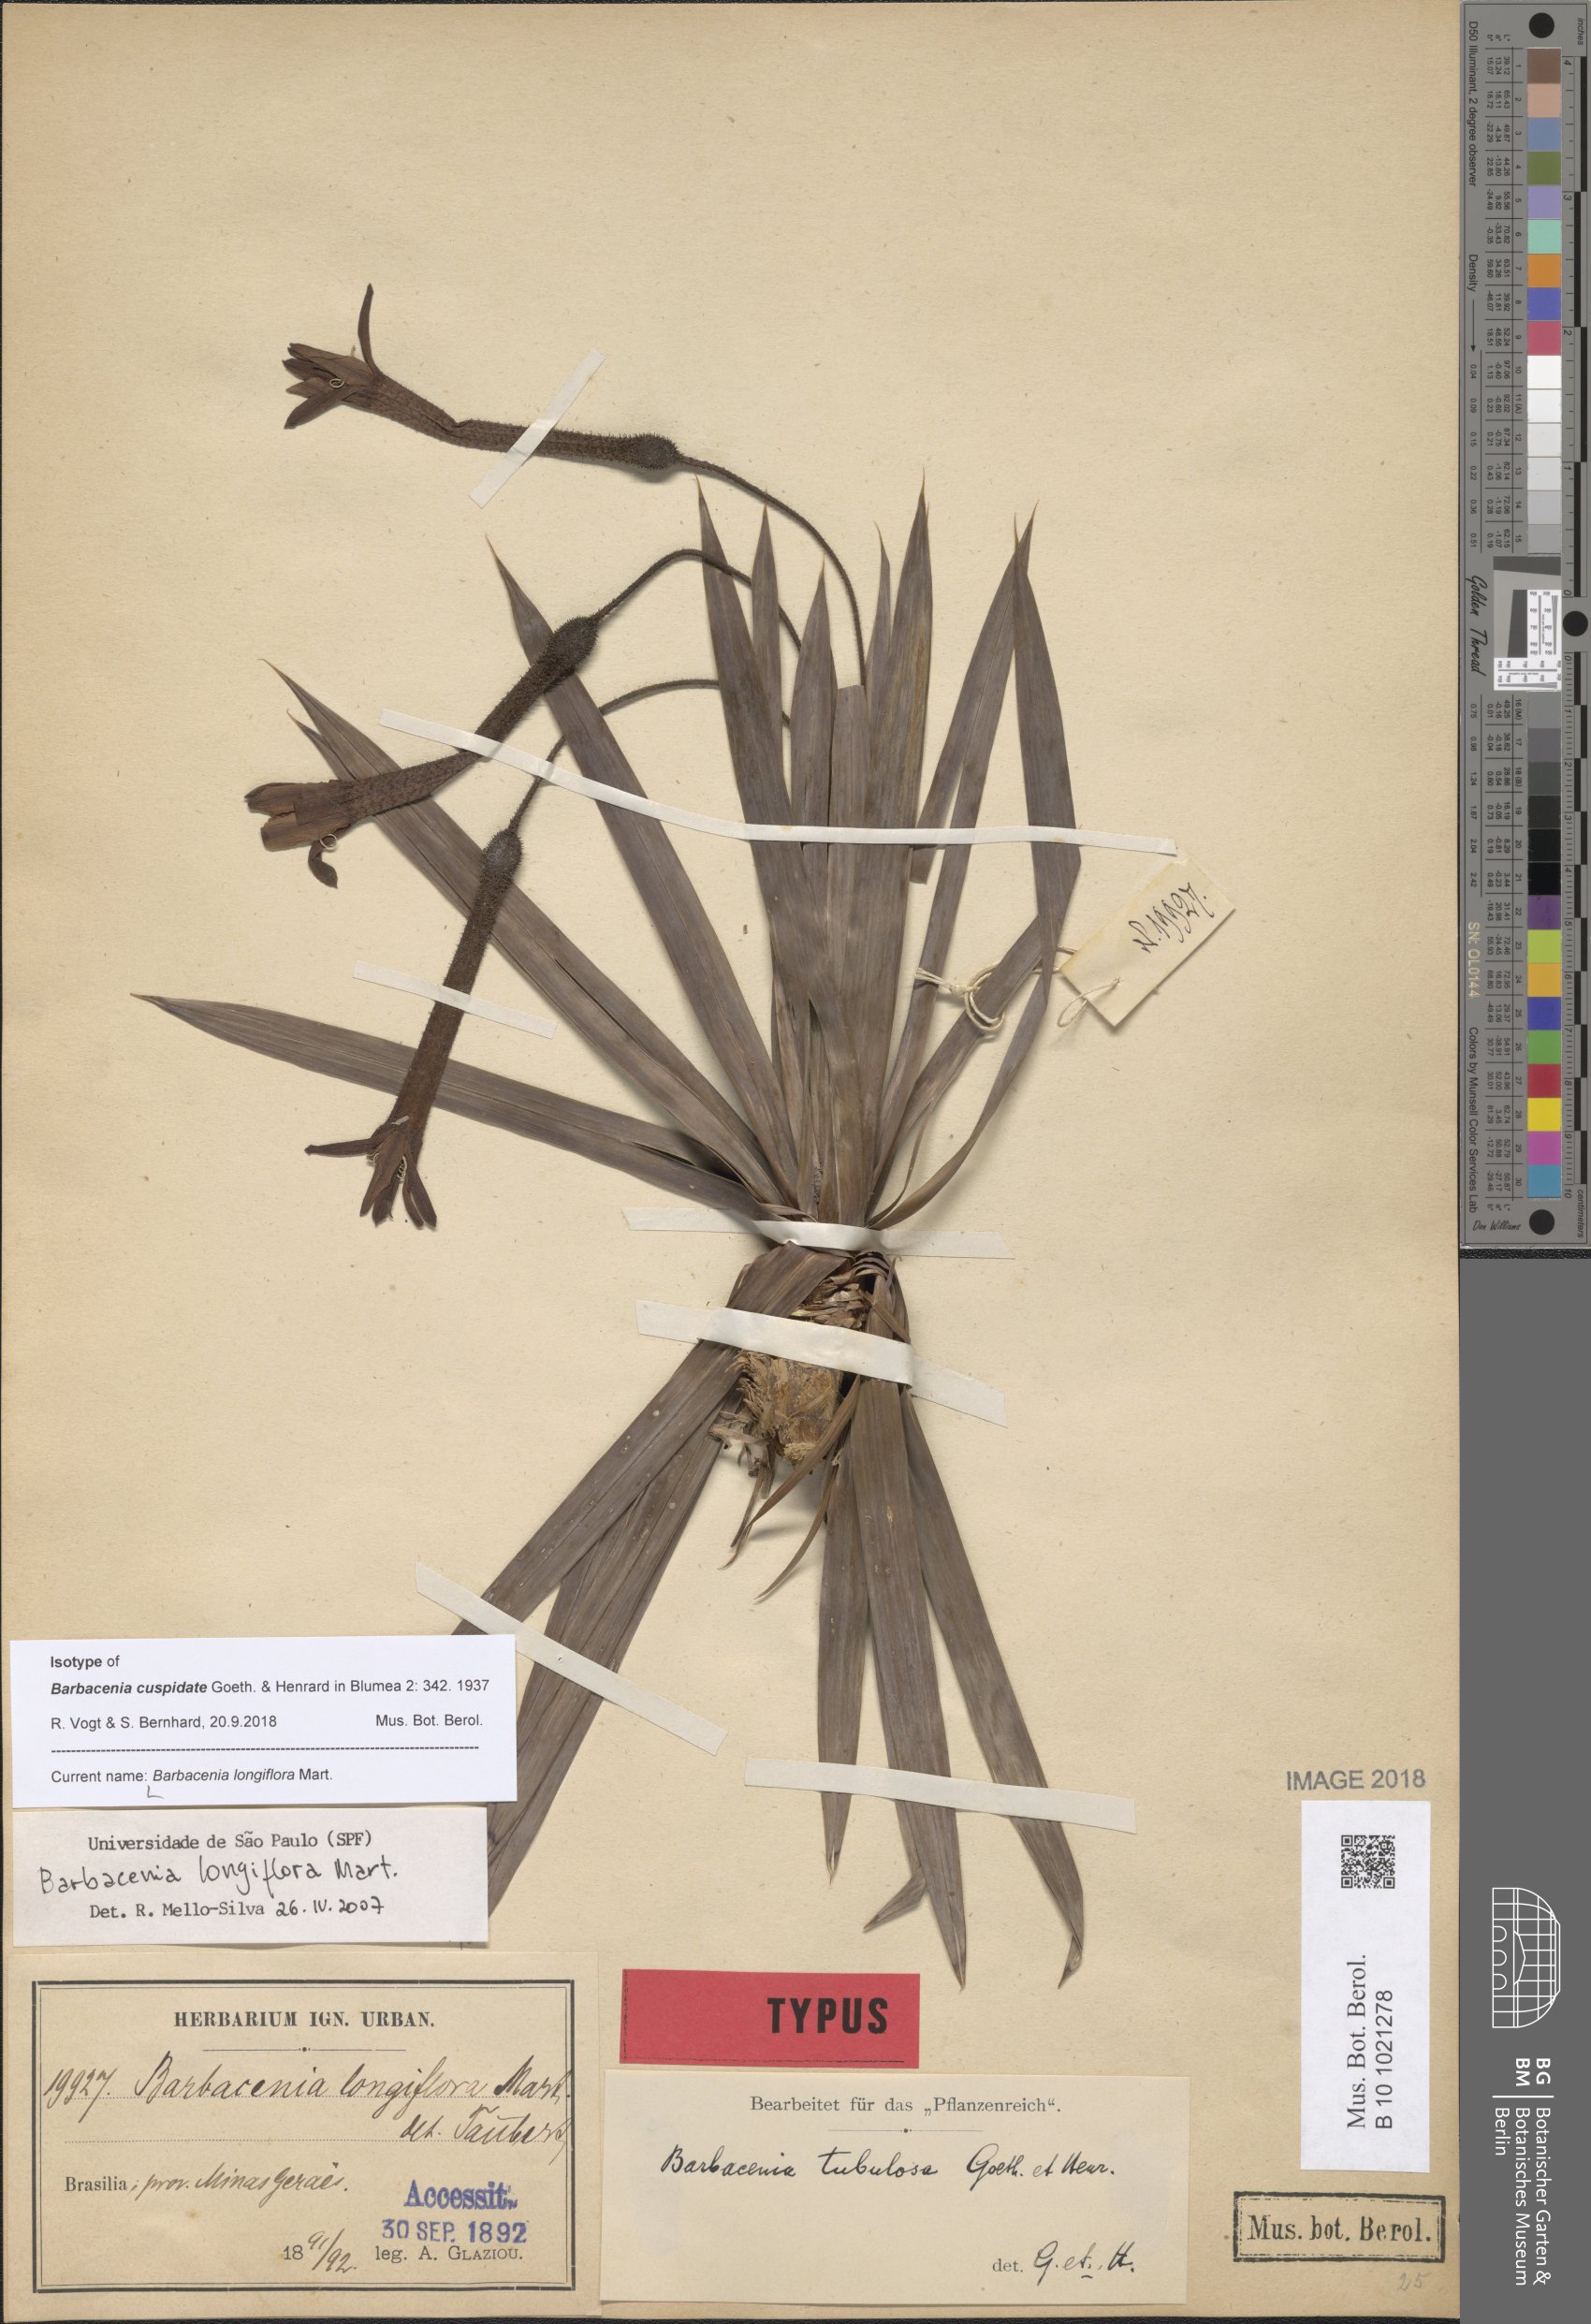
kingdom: Plantae
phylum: Tracheophyta
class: Liliopsida
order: Pandanales
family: Velloziaceae
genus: Barbacenia
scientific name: Barbacenia longiflora
